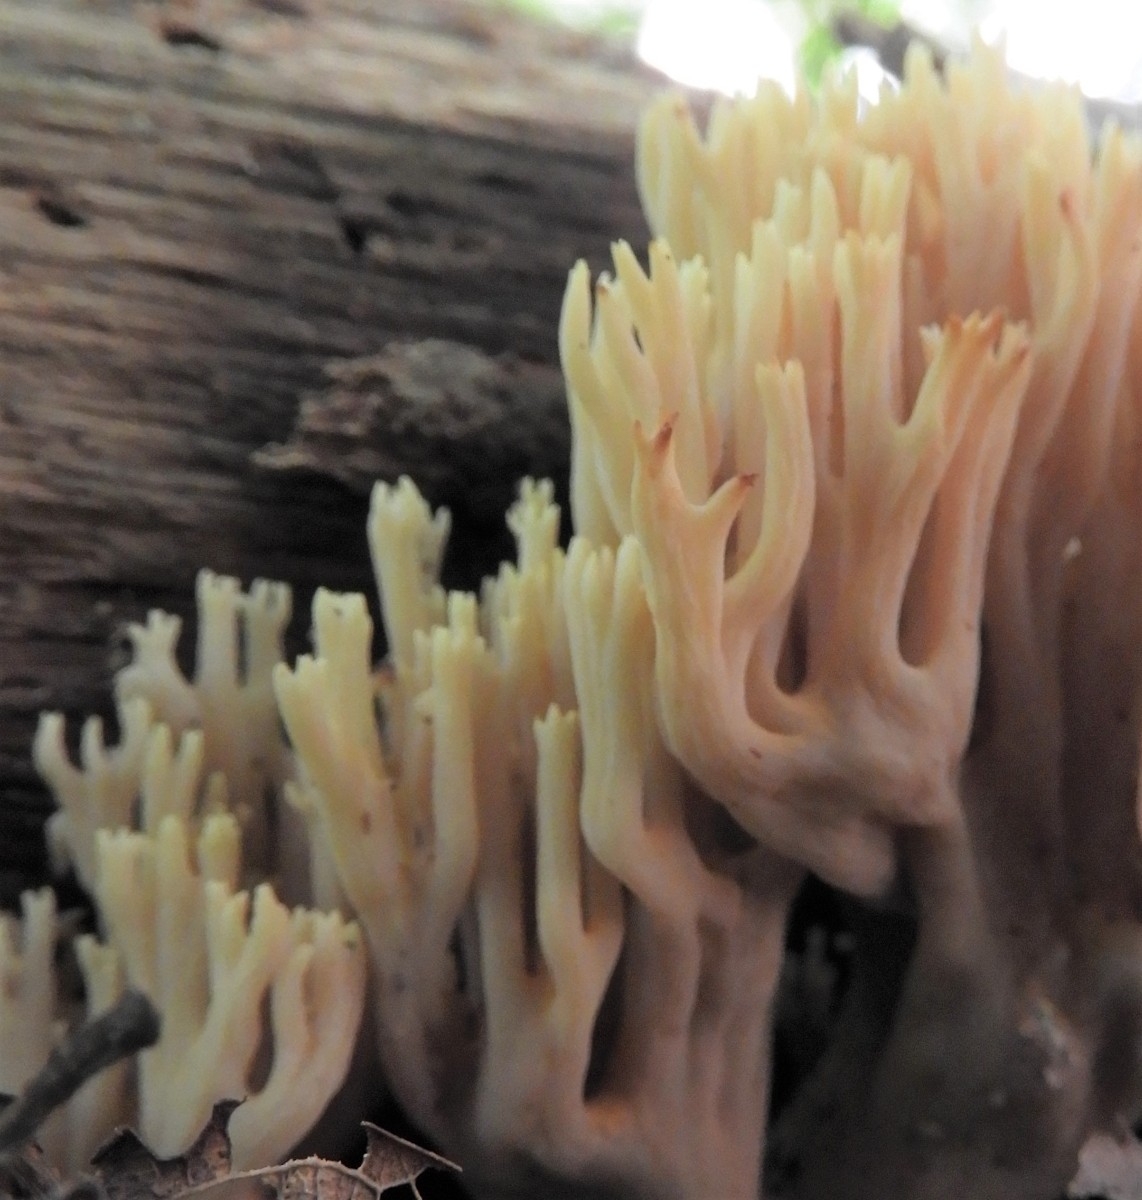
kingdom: Fungi
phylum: Basidiomycota
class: Agaricomycetes
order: Gomphales
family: Gomphaceae
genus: Ramaria
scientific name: Ramaria stricta
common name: rank koralsvamp
